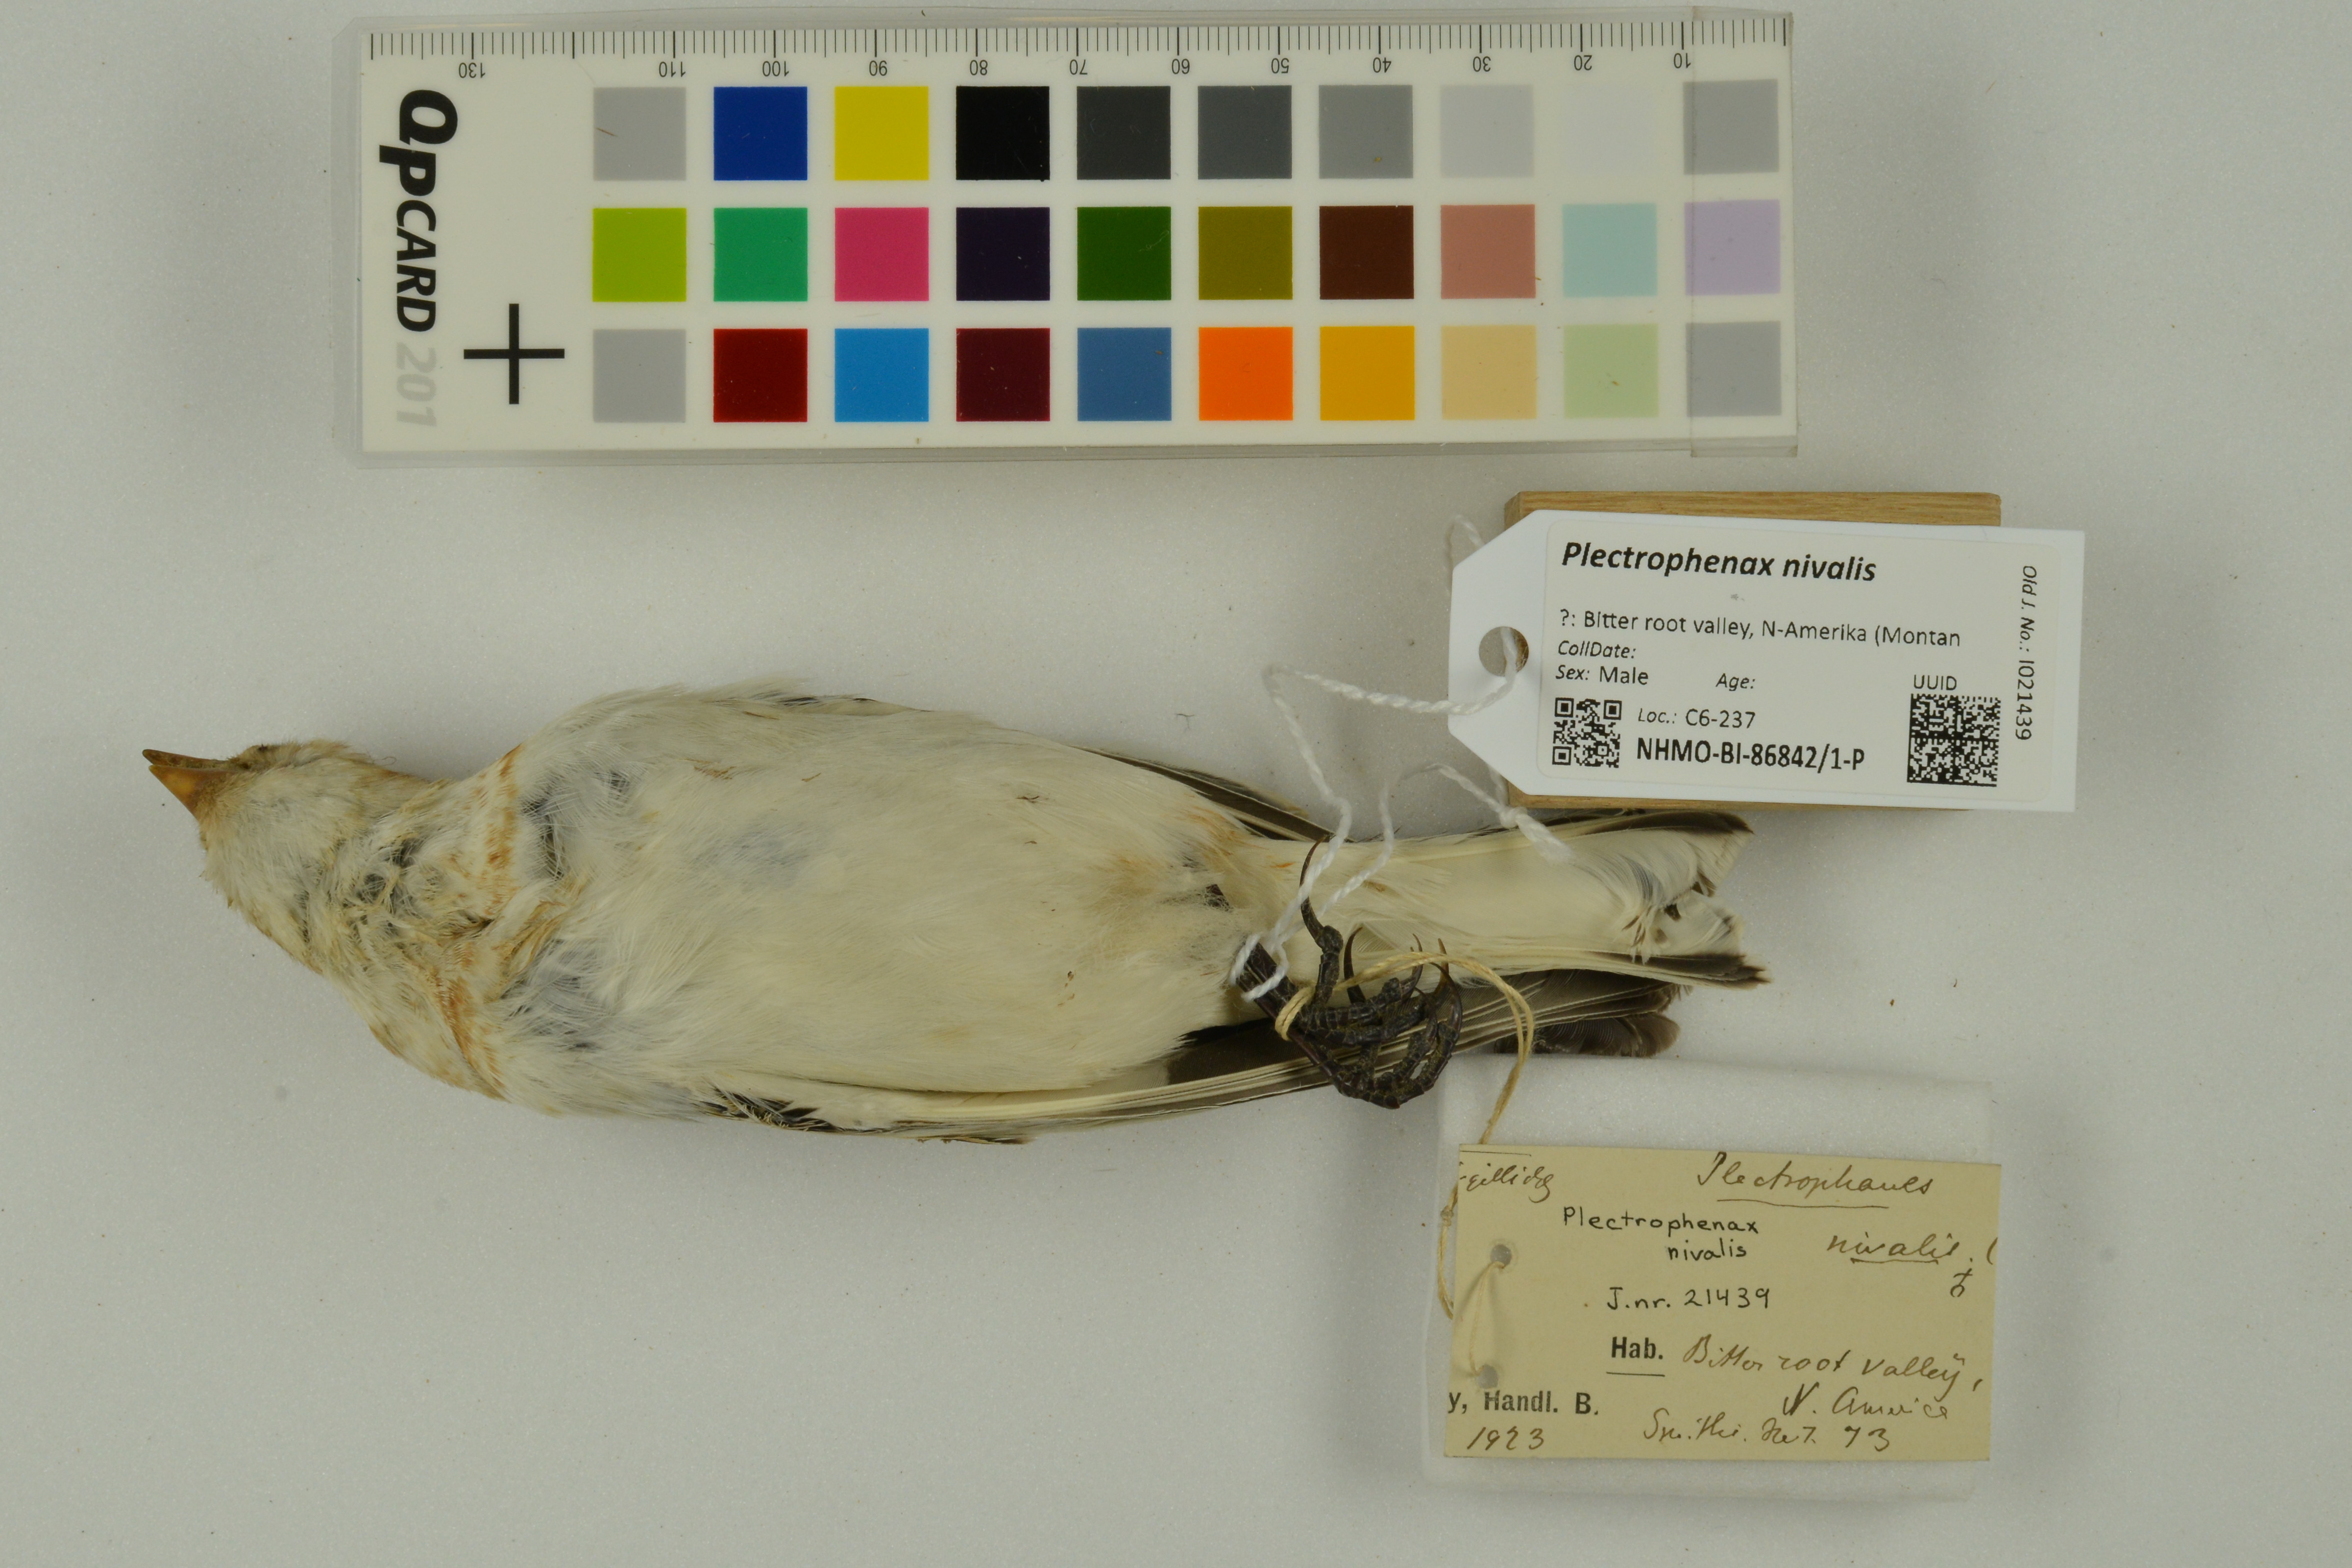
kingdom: Animalia
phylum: Chordata
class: Aves
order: Passeriformes
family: Calcariidae
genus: Plectrophenax
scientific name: Plectrophenax nivalis
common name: Snow bunting
